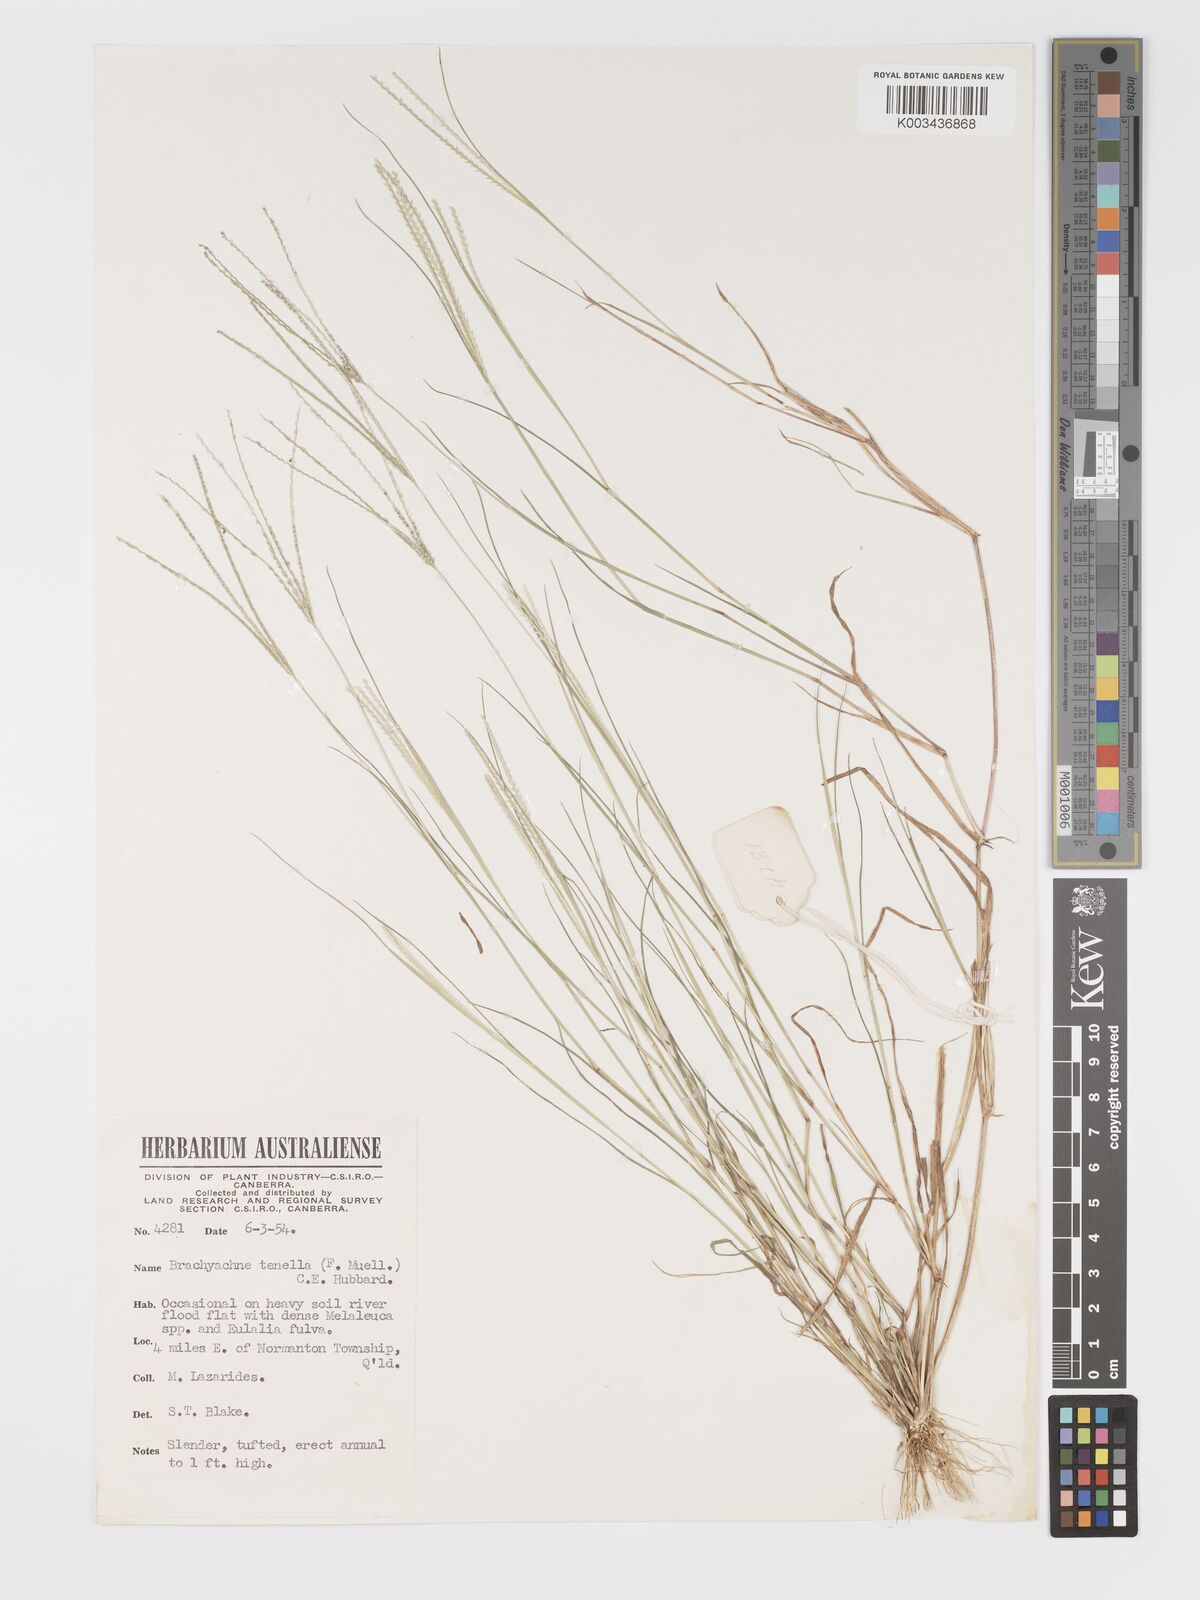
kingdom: Plantae
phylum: Tracheophyta
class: Liliopsida
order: Poales
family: Poaceae
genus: Cynodon
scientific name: Cynodon tenellus
